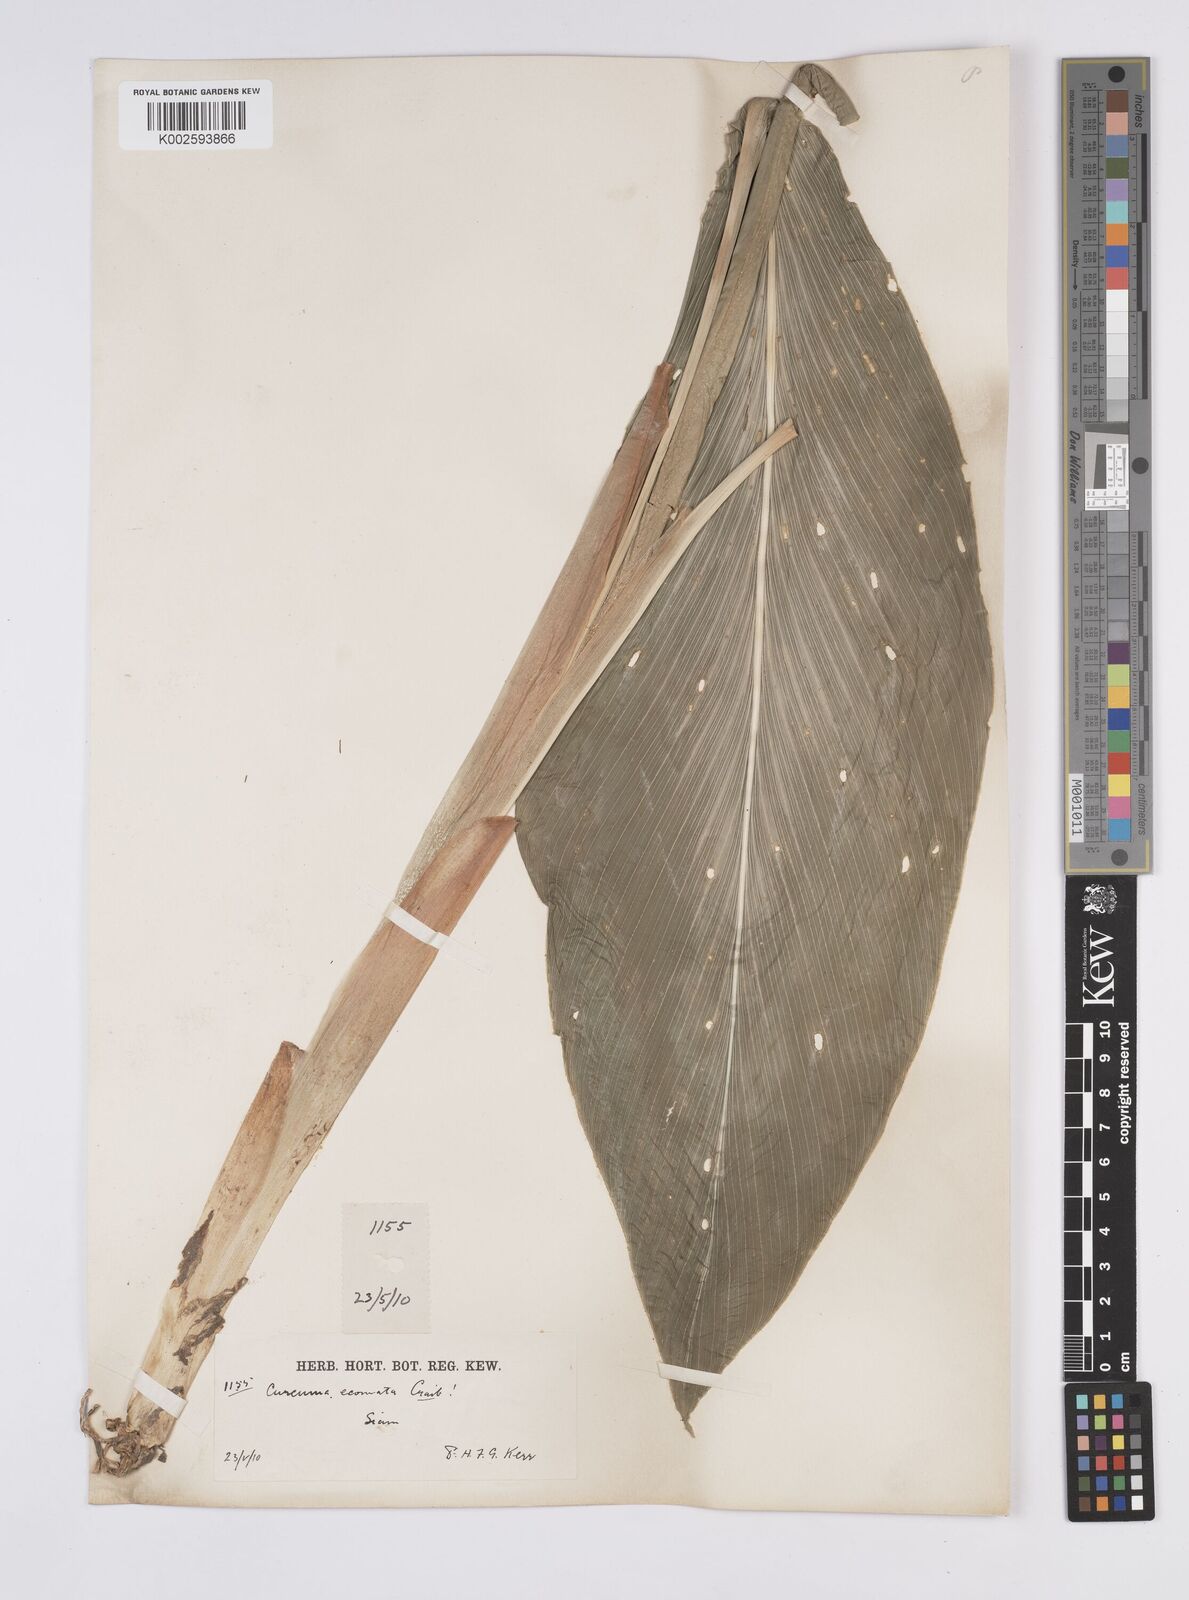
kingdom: Plantae
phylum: Tracheophyta
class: Liliopsida
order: Zingiberales
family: Zingiberaceae
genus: Curcuma
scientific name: Curcuma colorata
